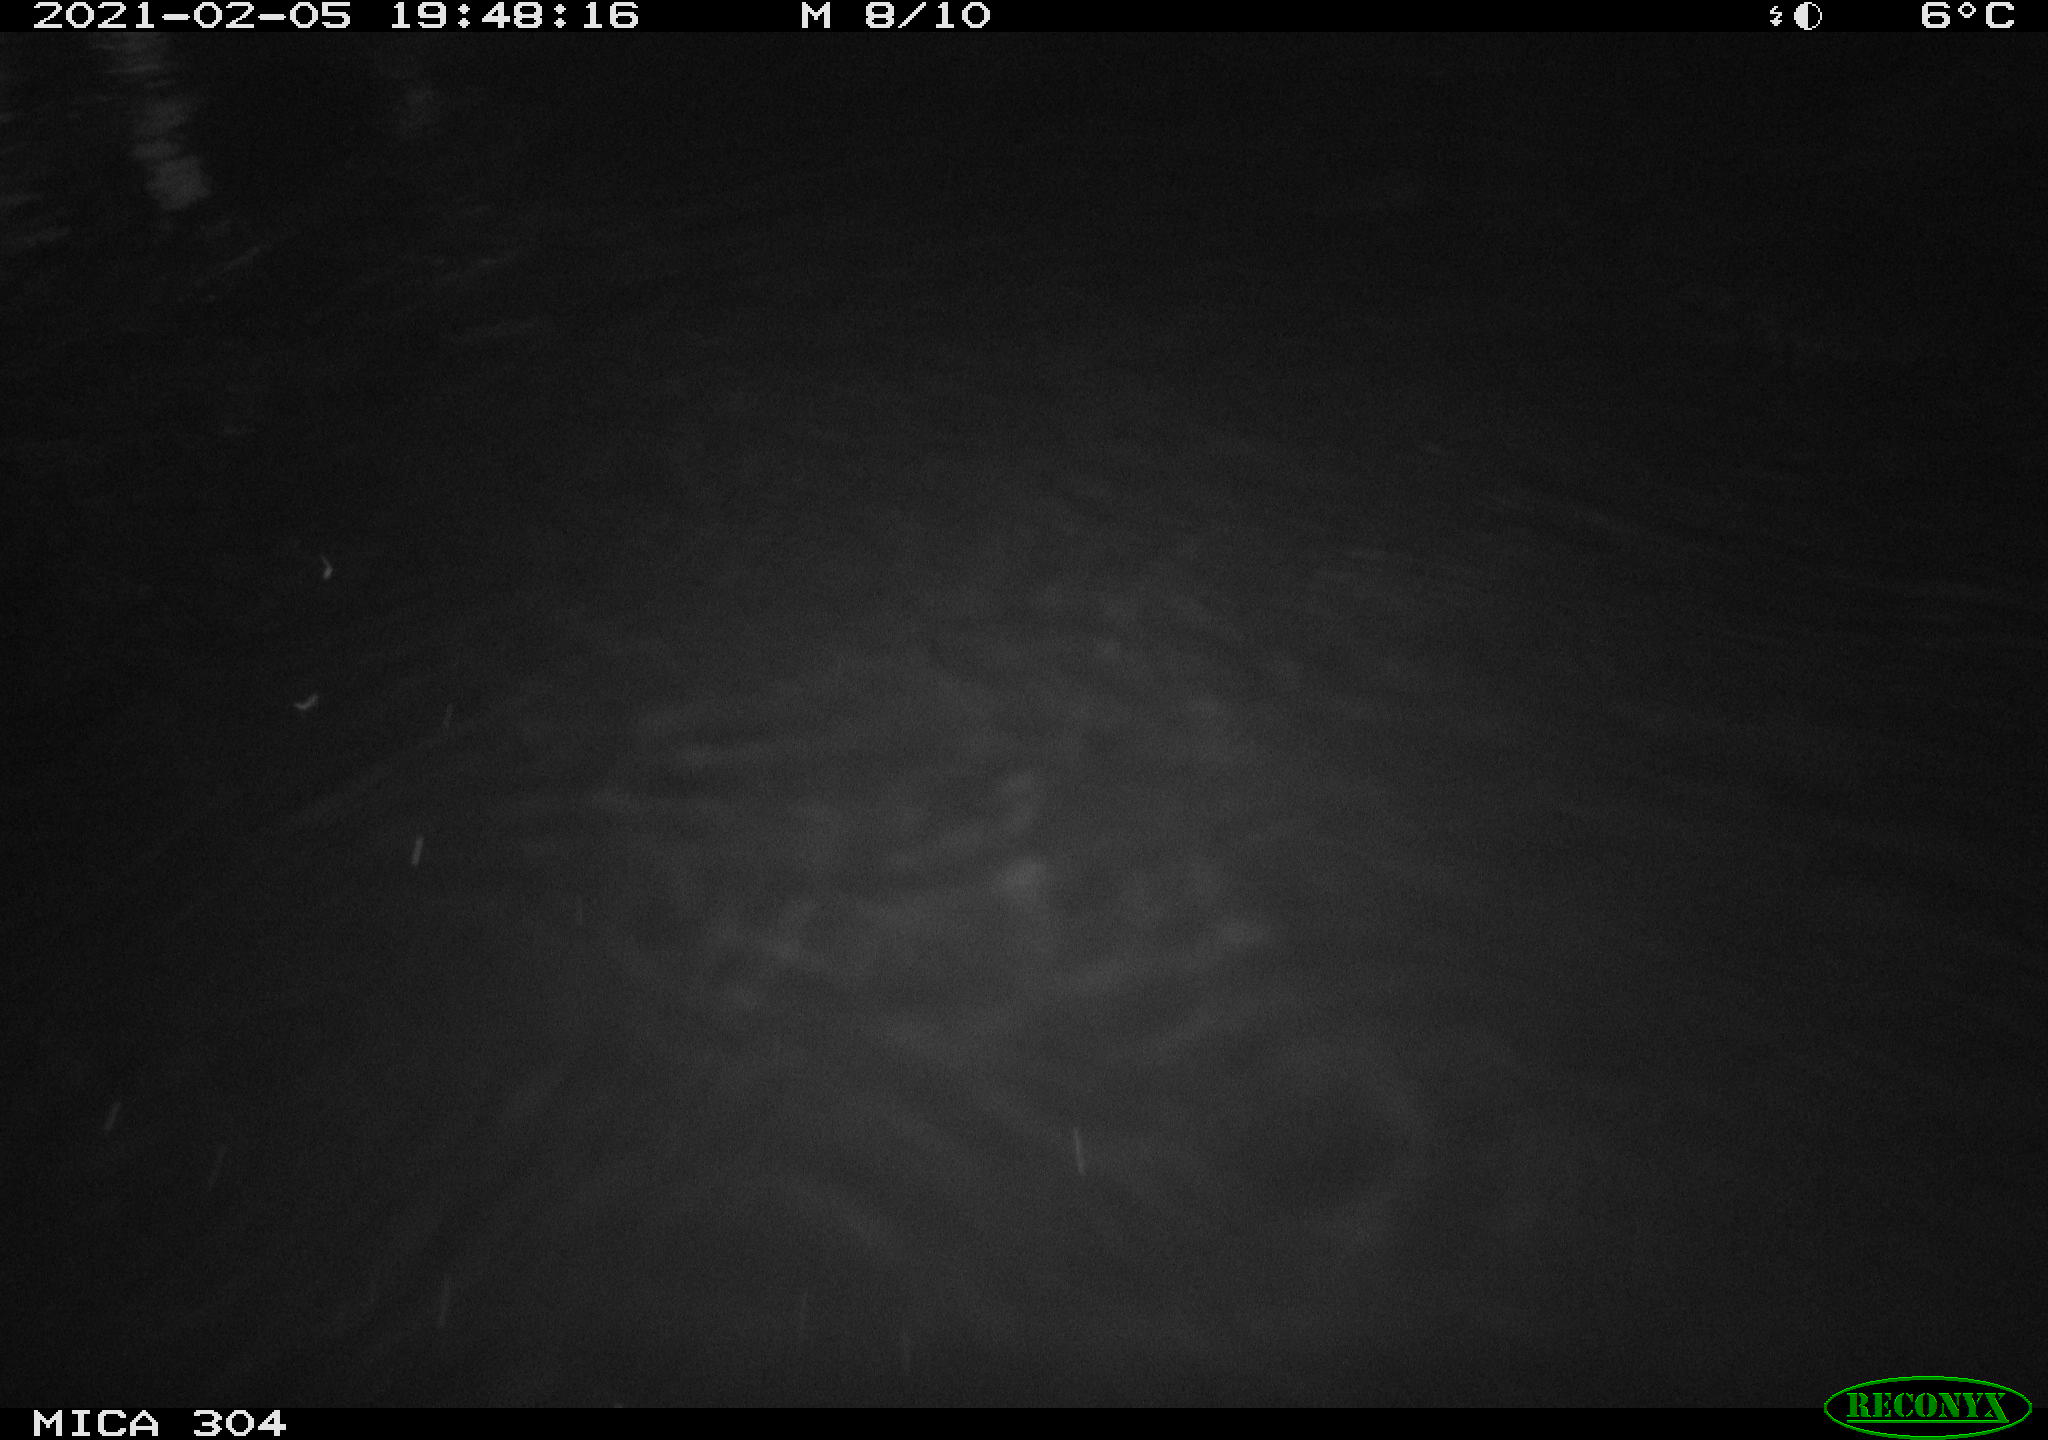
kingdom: Animalia
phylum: Chordata
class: Mammalia
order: Rodentia
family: Cricetidae
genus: Ondatra
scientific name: Ondatra zibethicus
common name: Muskrat
